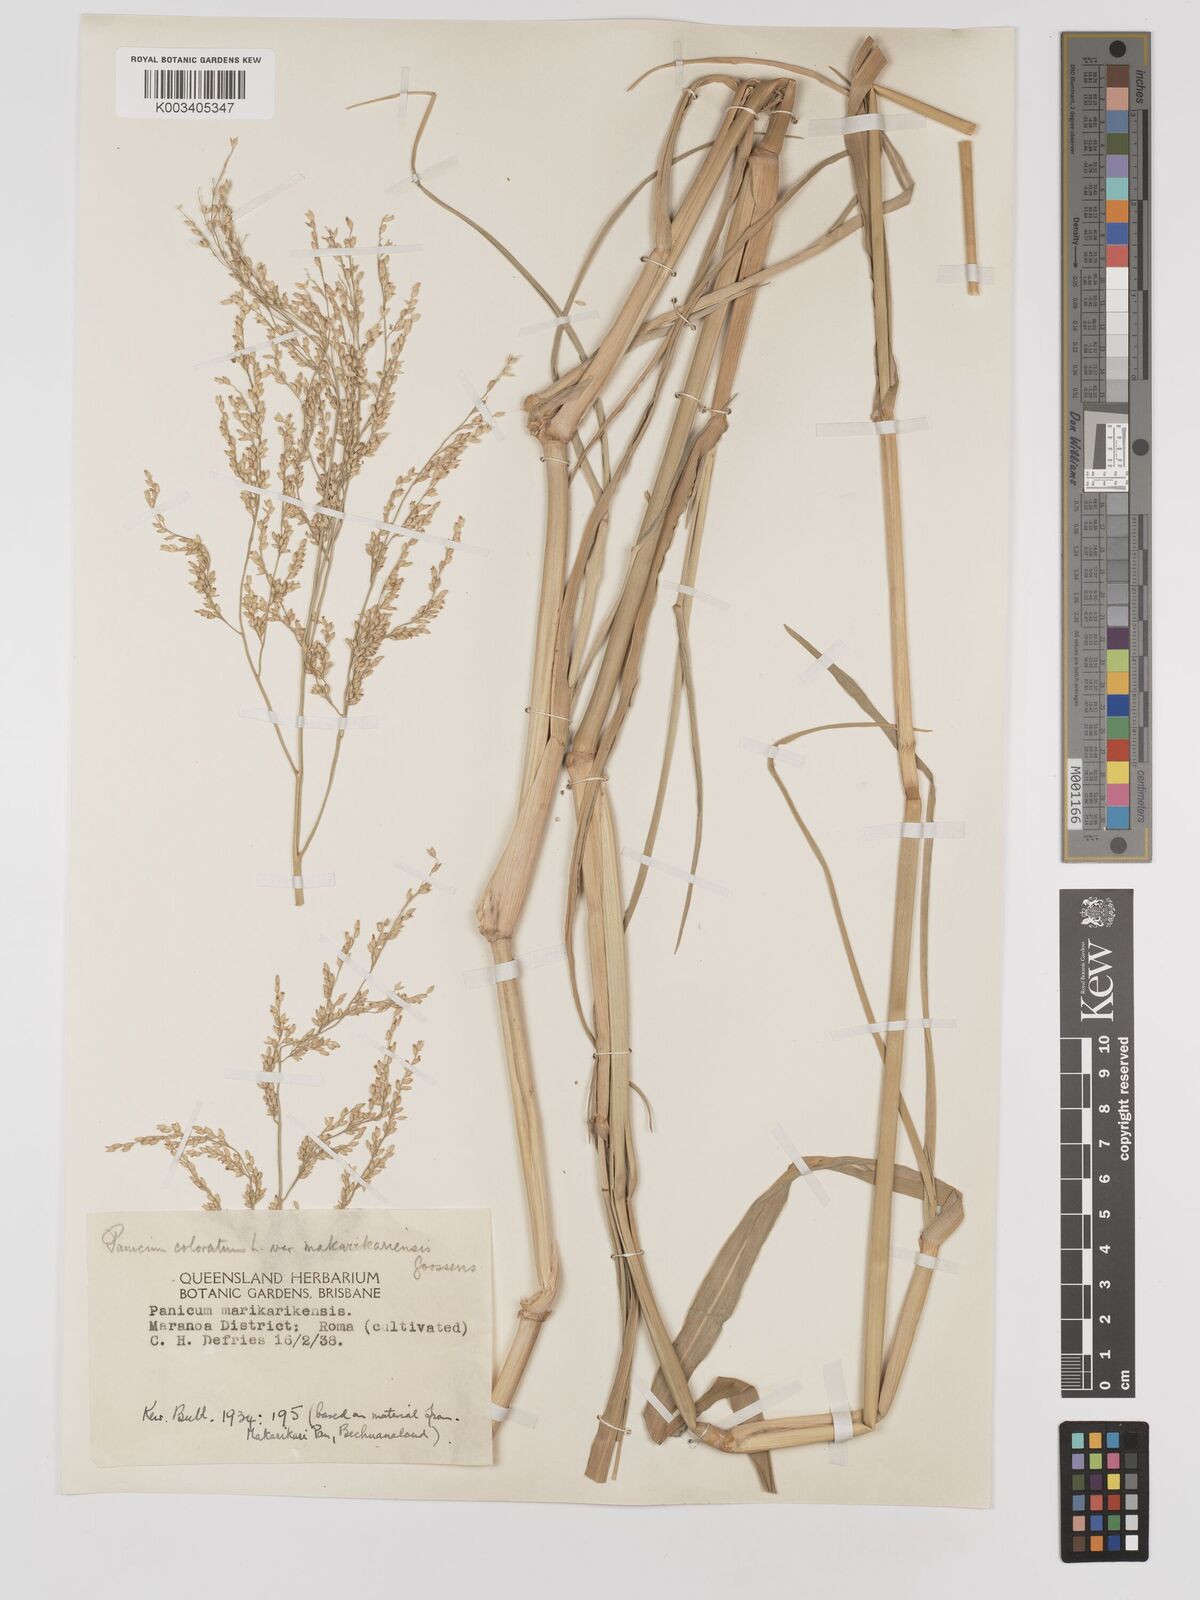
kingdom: Plantae
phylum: Tracheophyta
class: Liliopsida
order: Poales
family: Poaceae
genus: Panicum
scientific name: Panicum coloratum
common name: Kleingrass
